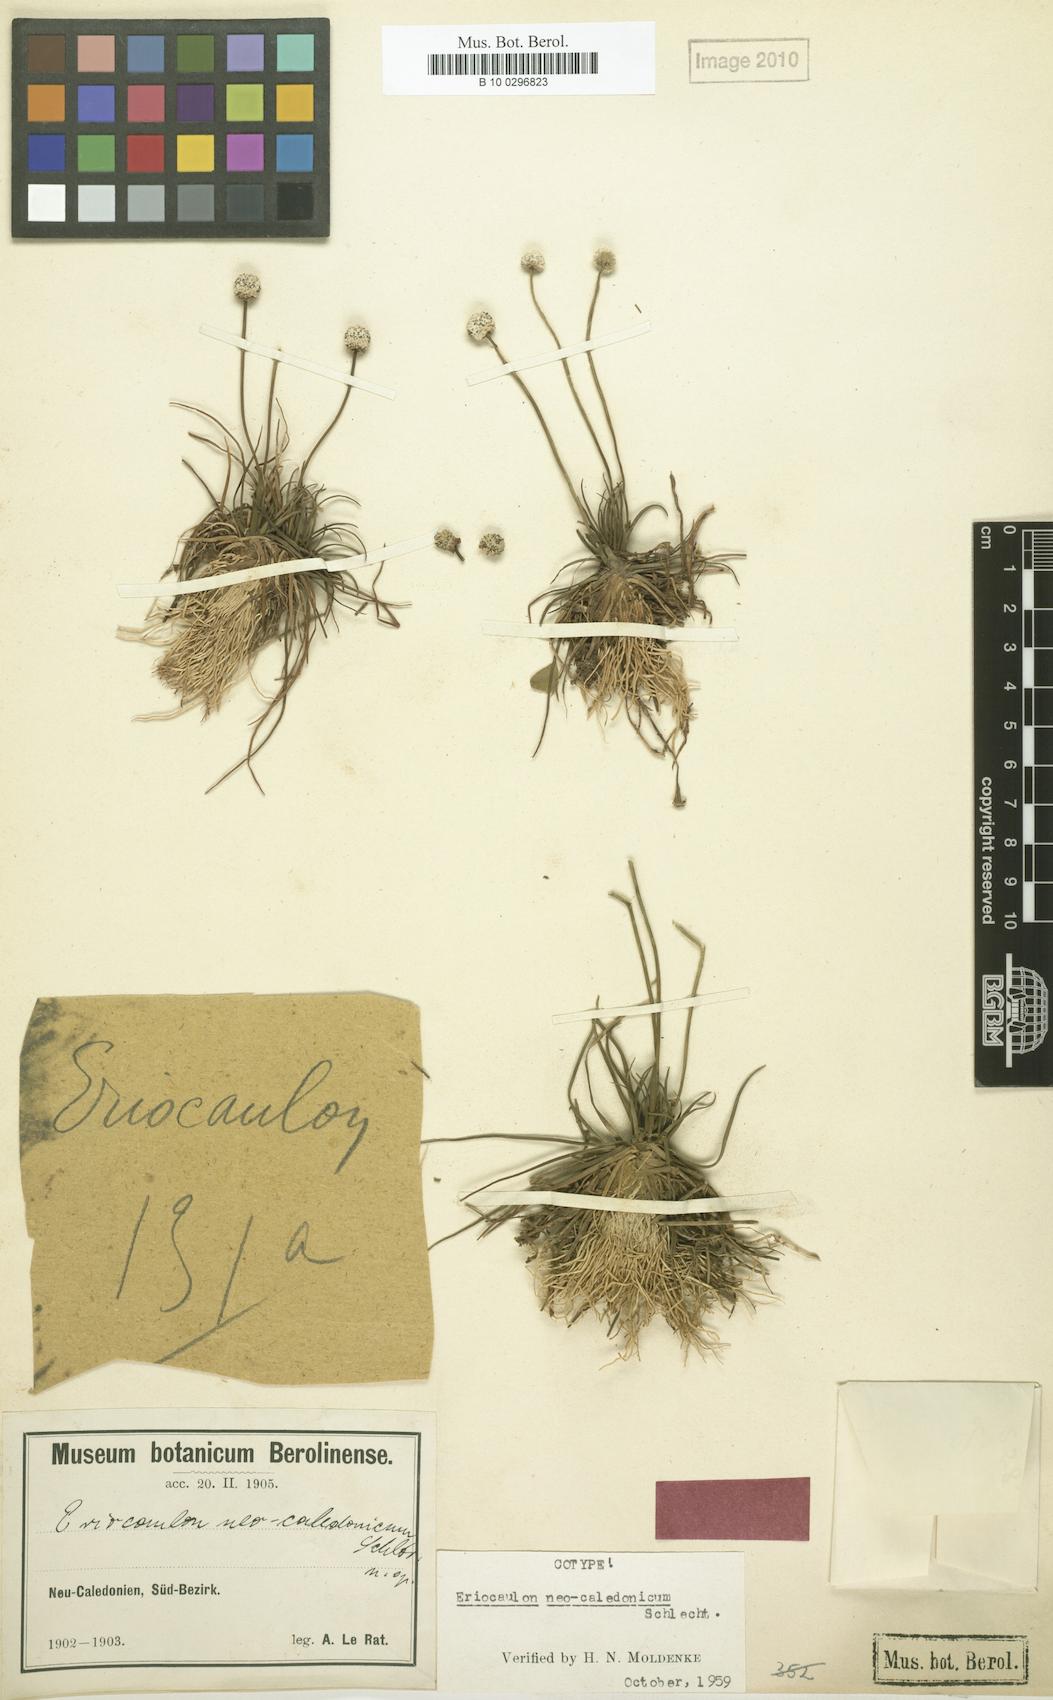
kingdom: Plantae
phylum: Tracheophyta
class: Liliopsida
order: Poales
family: Eriocaulaceae
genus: Eriocaulon
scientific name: Eriocaulon neocaledonicum
